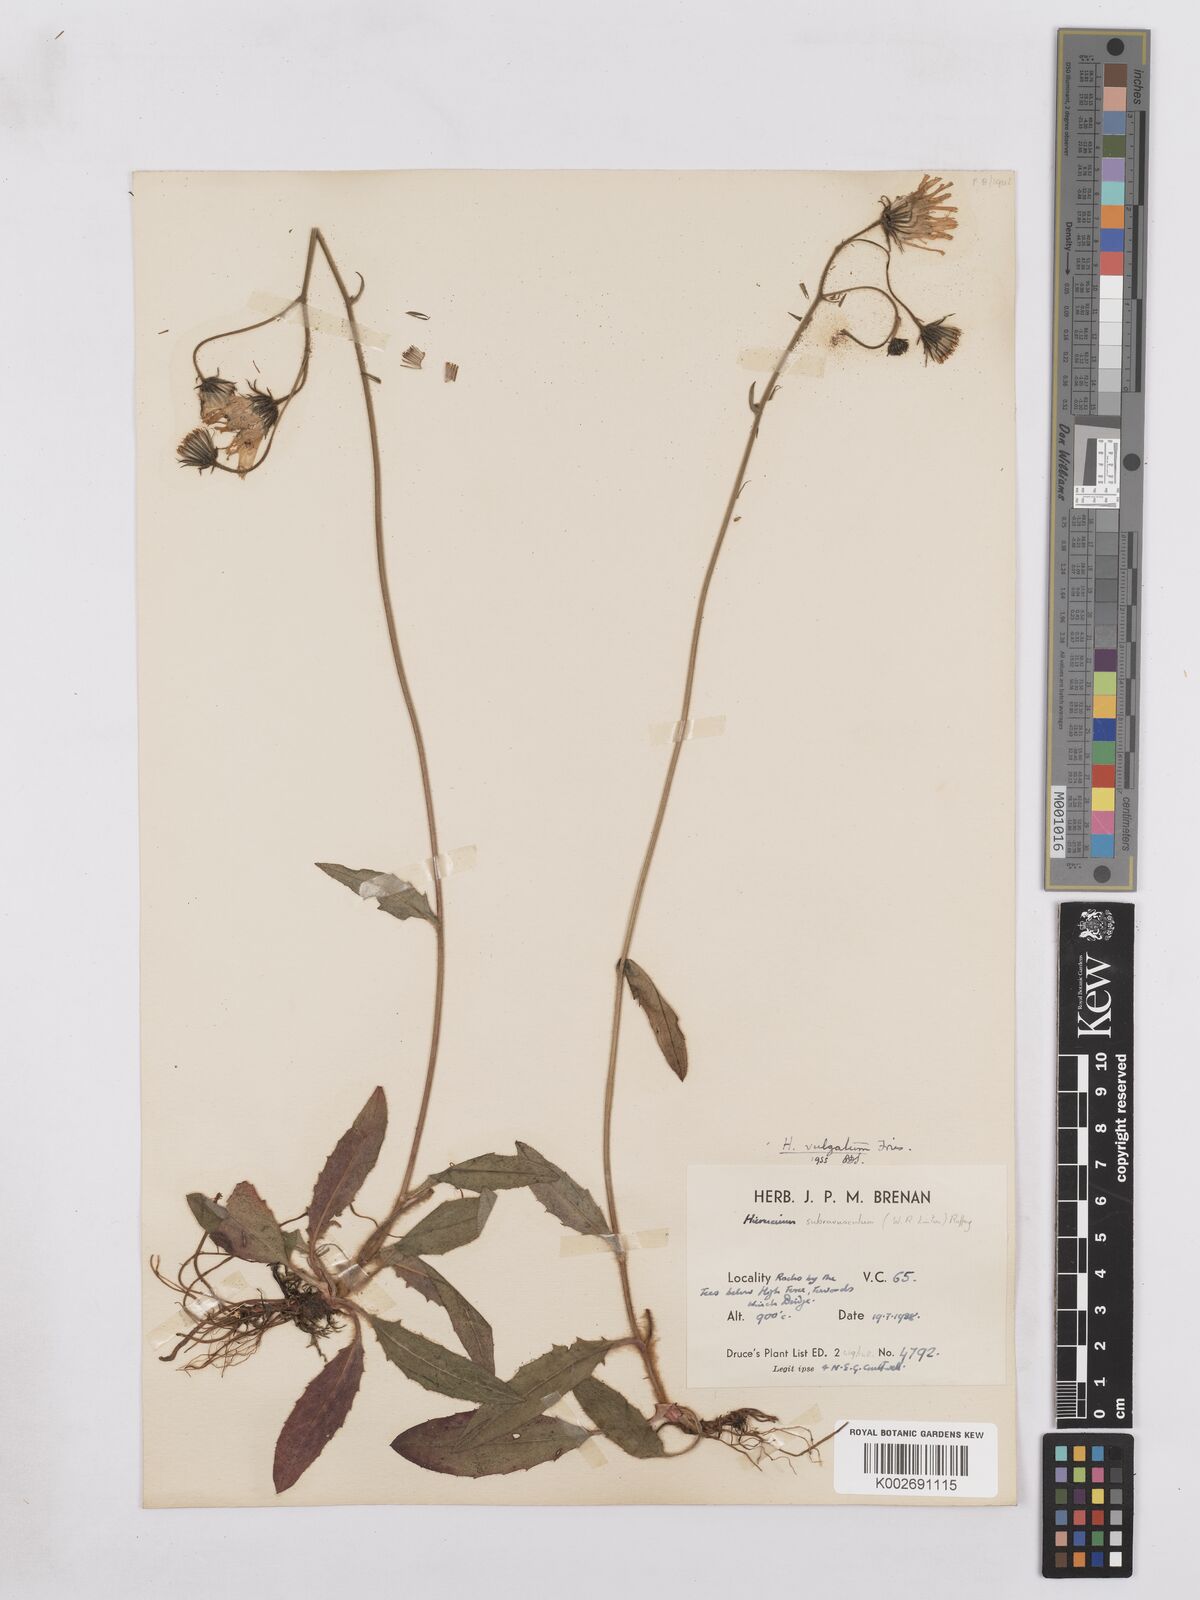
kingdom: Plantae
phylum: Tracheophyta
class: Magnoliopsida
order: Asterales
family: Asteraceae
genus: Hieracium
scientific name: Hieracium lachenalii
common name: Common hawkweed
